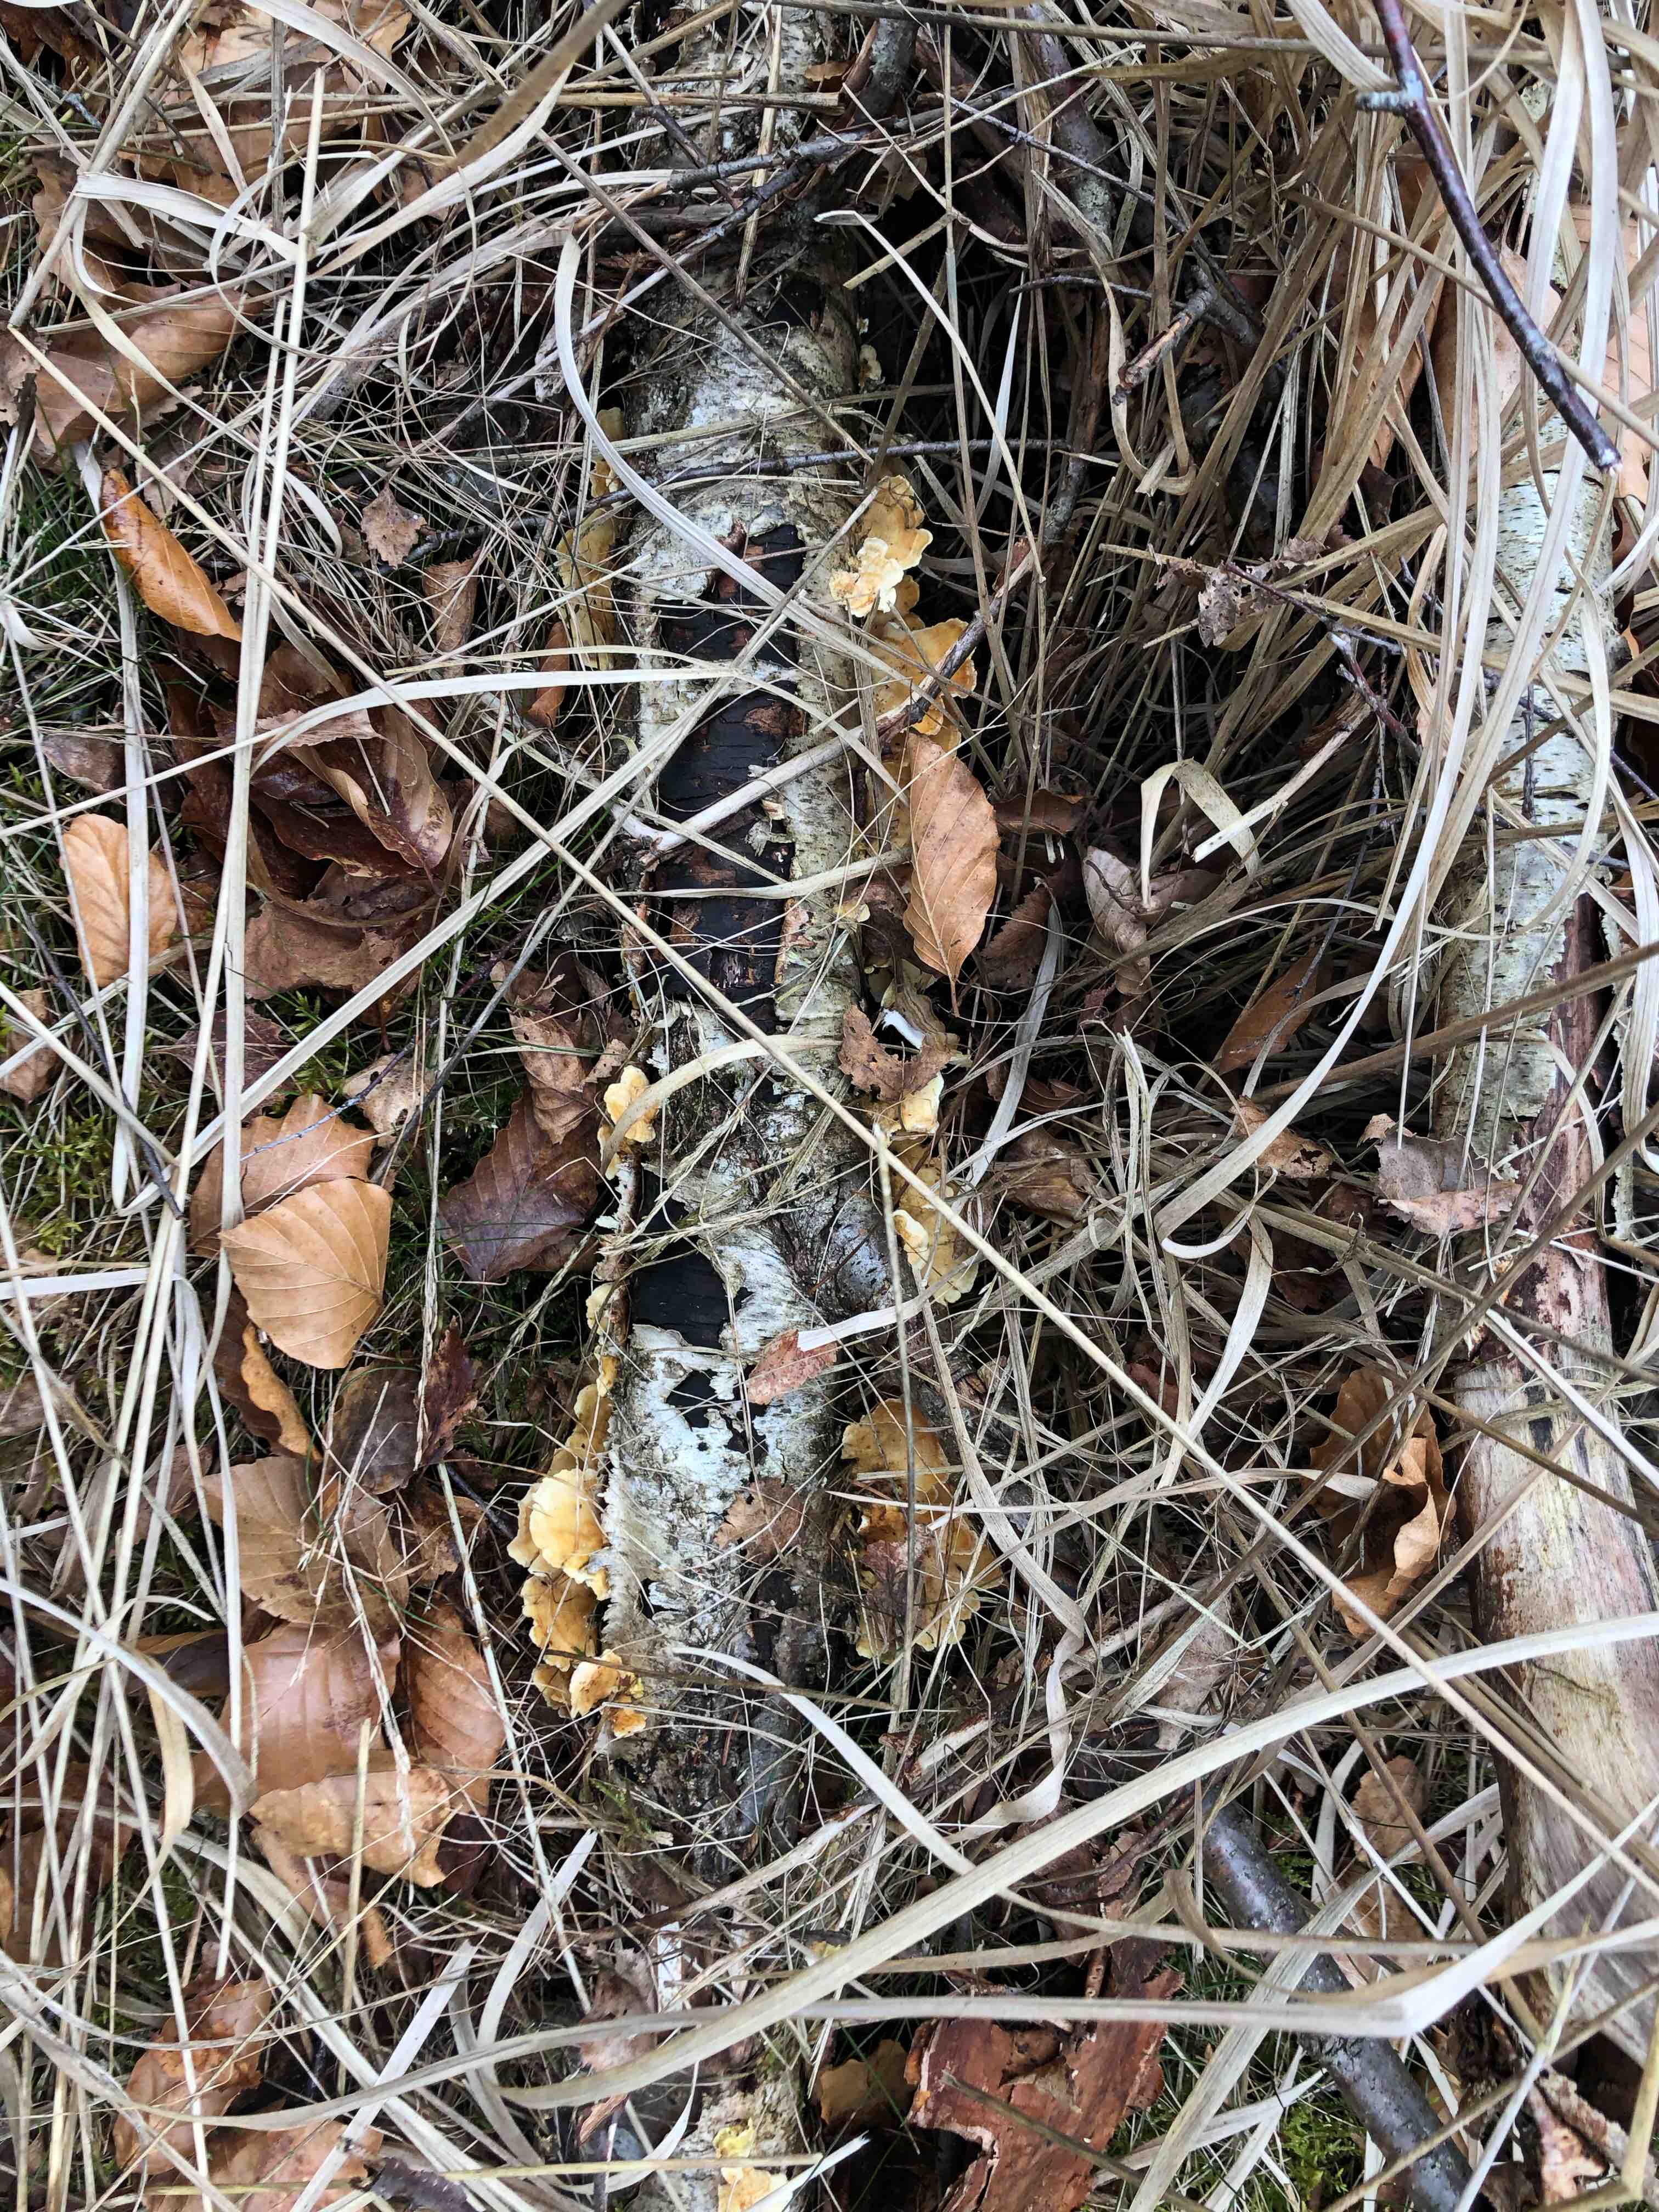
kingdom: Fungi
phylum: Basidiomycota
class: Agaricomycetes
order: Polyporales
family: Polyporaceae
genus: Trametes
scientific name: Trametes ochracea
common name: bæltet læderporesvamp
